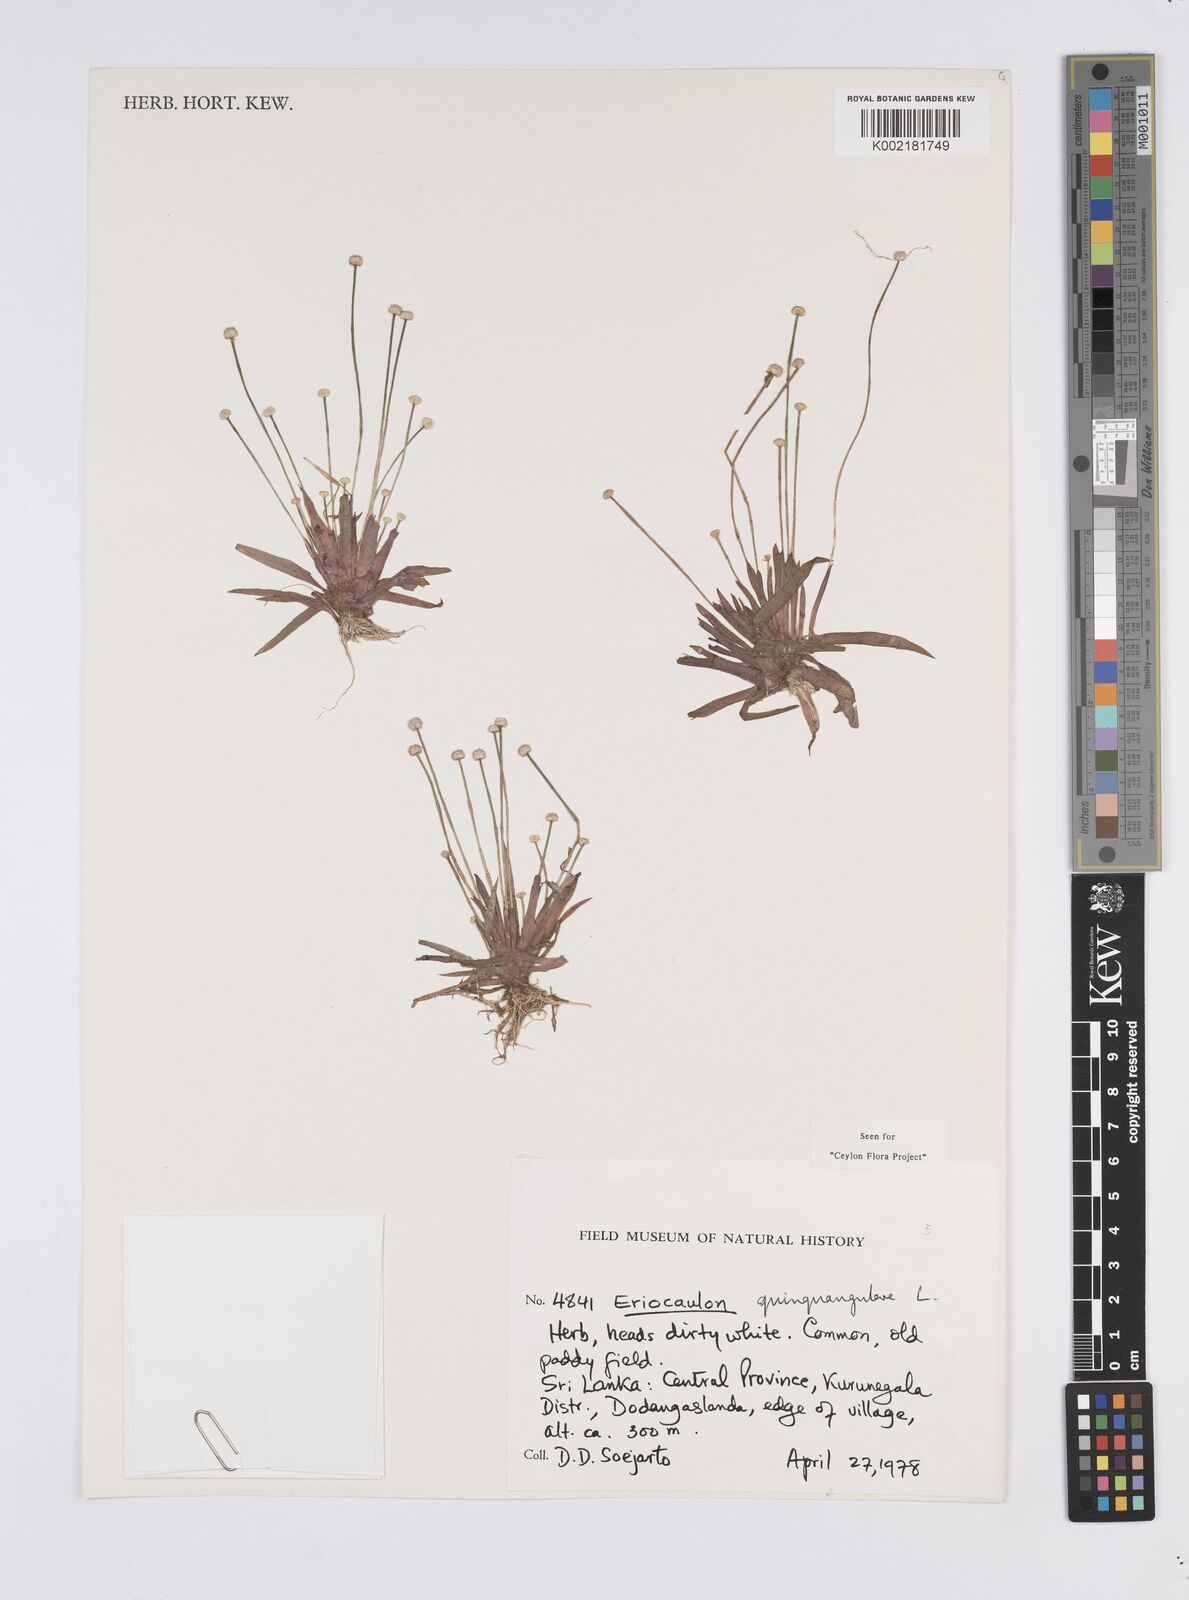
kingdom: Plantae
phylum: Tracheophyta
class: Liliopsida
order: Poales
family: Eriocaulaceae
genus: Eriocaulon
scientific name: Eriocaulon quinquangulare
